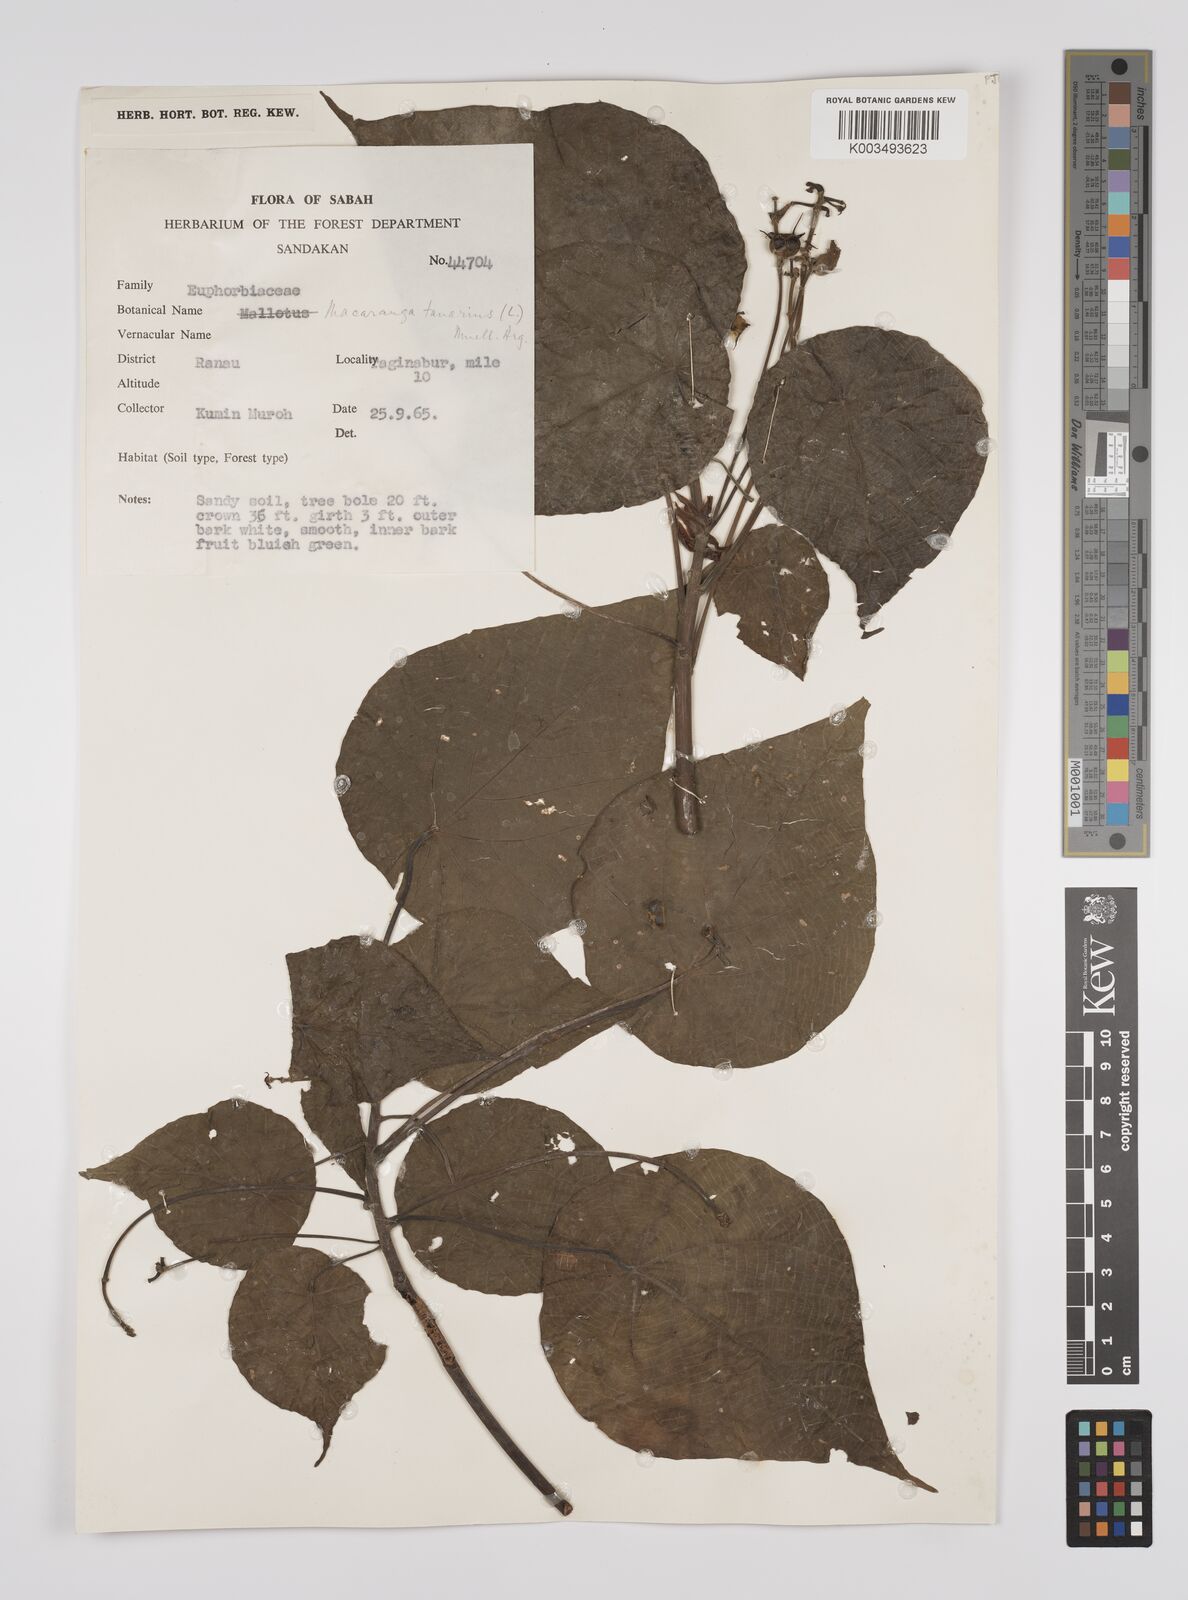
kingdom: Plantae
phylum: Tracheophyta
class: Magnoliopsida
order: Malpighiales
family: Euphorbiaceae
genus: Macaranga
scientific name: Macaranga tanarius
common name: Parasol leaf tree
